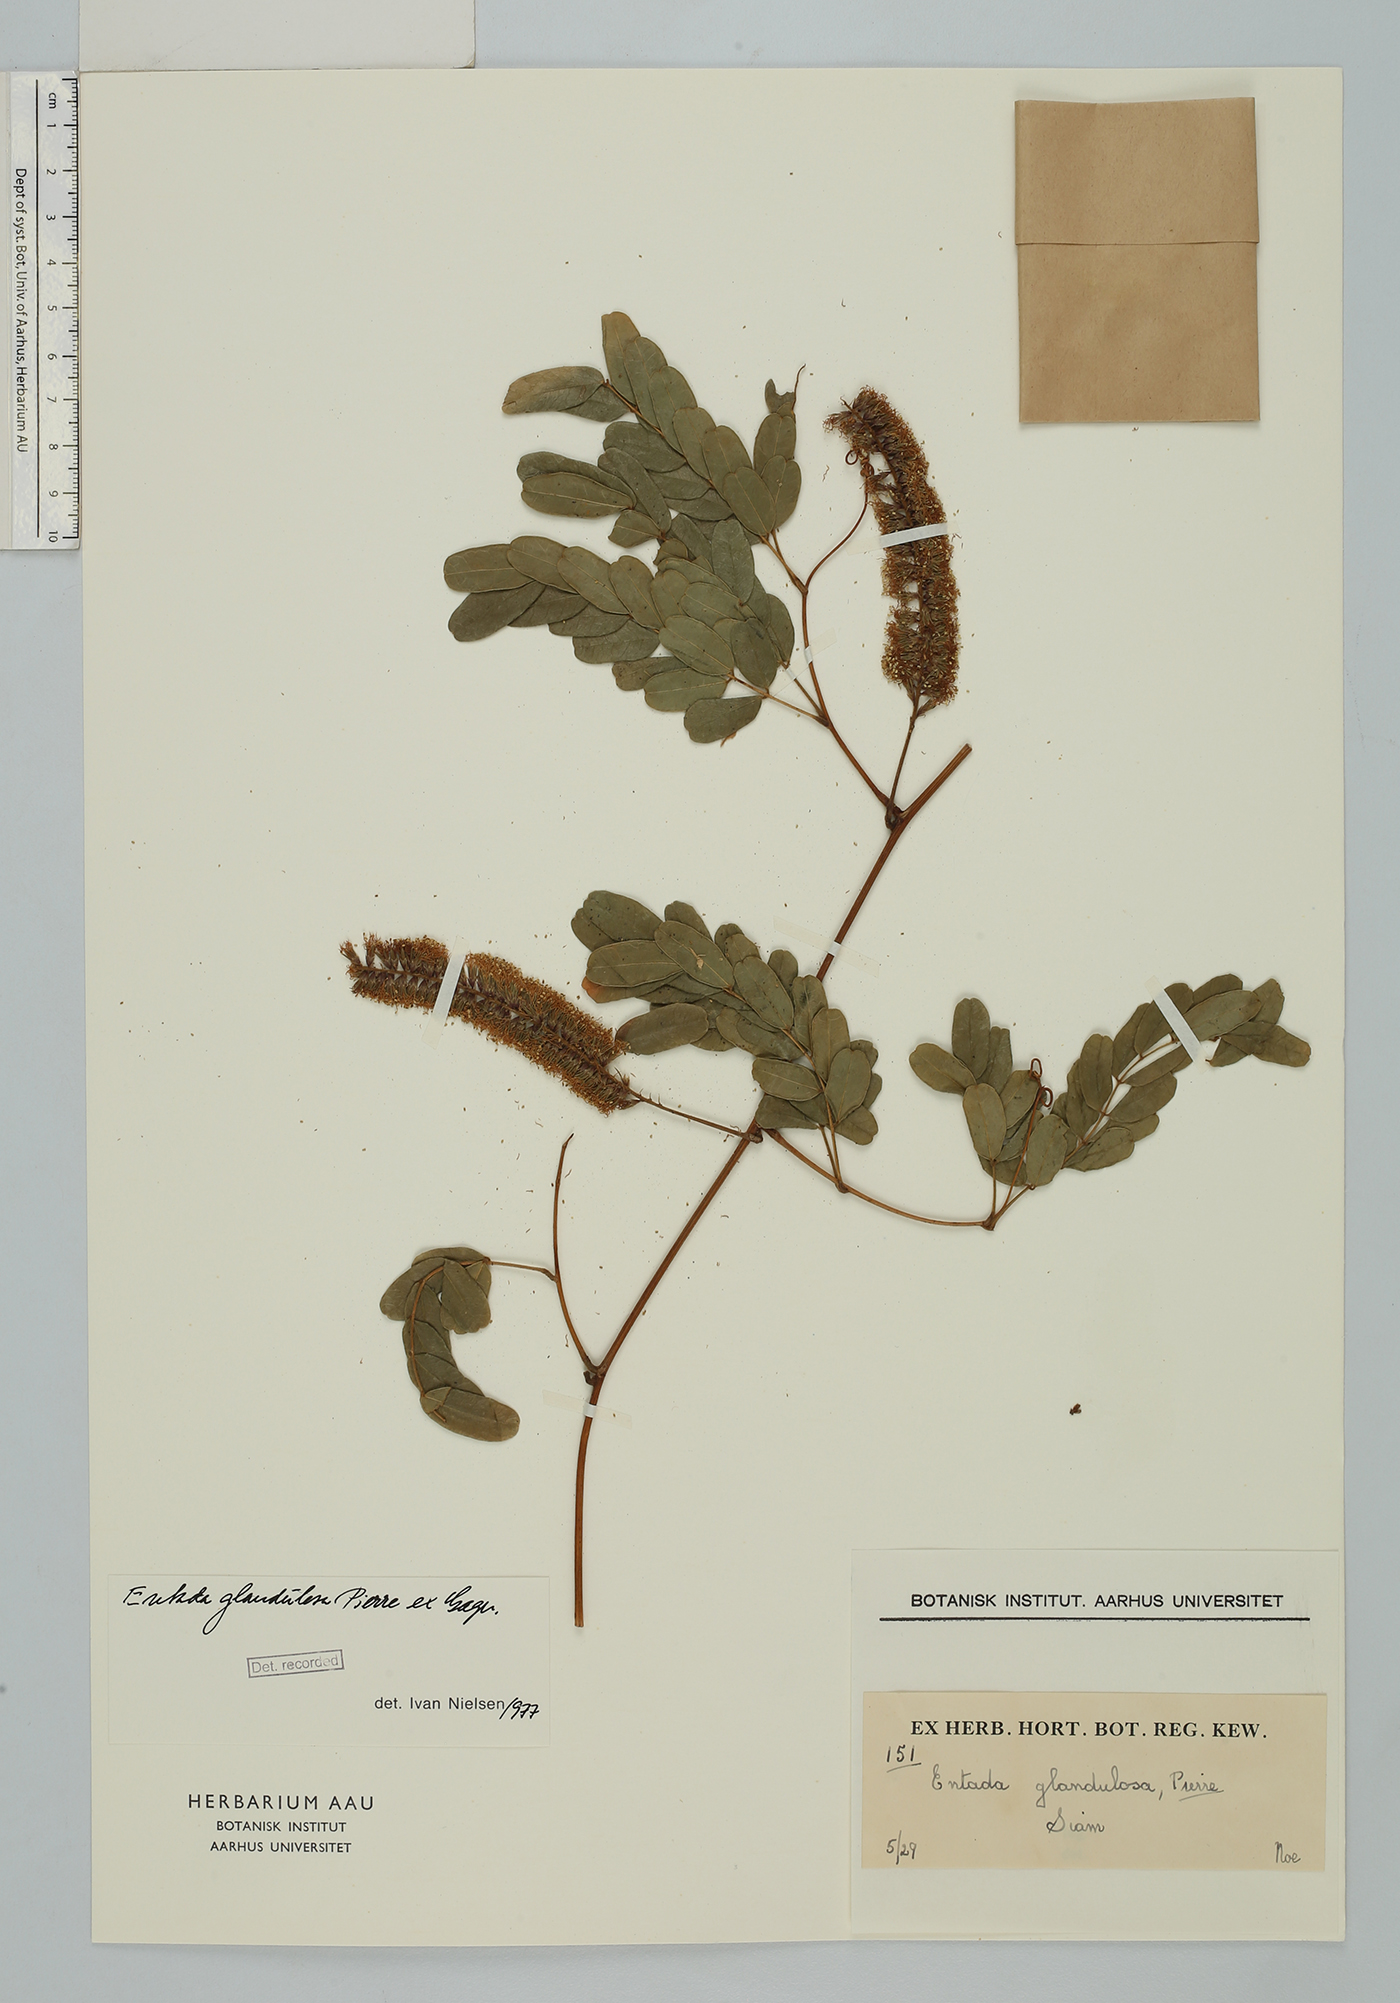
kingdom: Plantae
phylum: Tracheophyta
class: Magnoliopsida
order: Fabales
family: Fabaceae
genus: Entada
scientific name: Entada glandulosa
